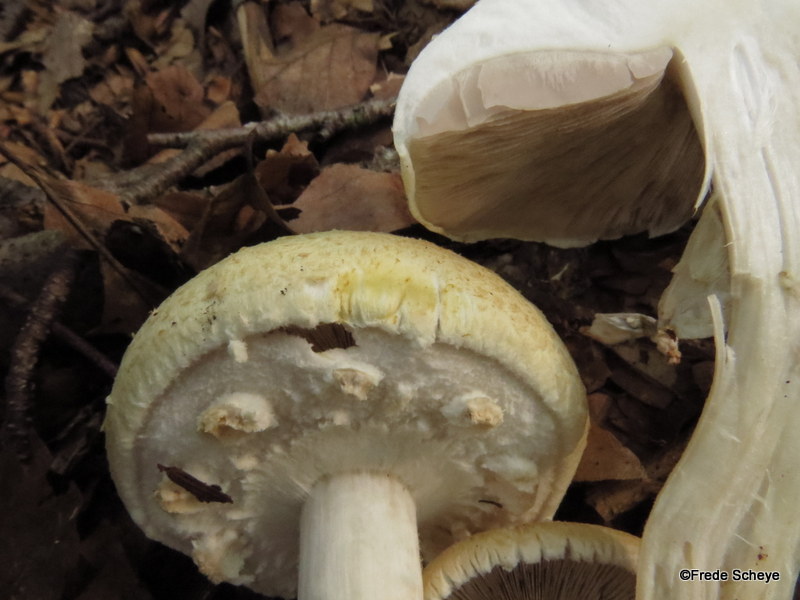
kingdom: Fungi
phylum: Basidiomycota
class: Agaricomycetes
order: Agaricales
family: Agaricaceae
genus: Agaricus
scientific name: Agaricus sylvicola
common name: gulhvid champignon
